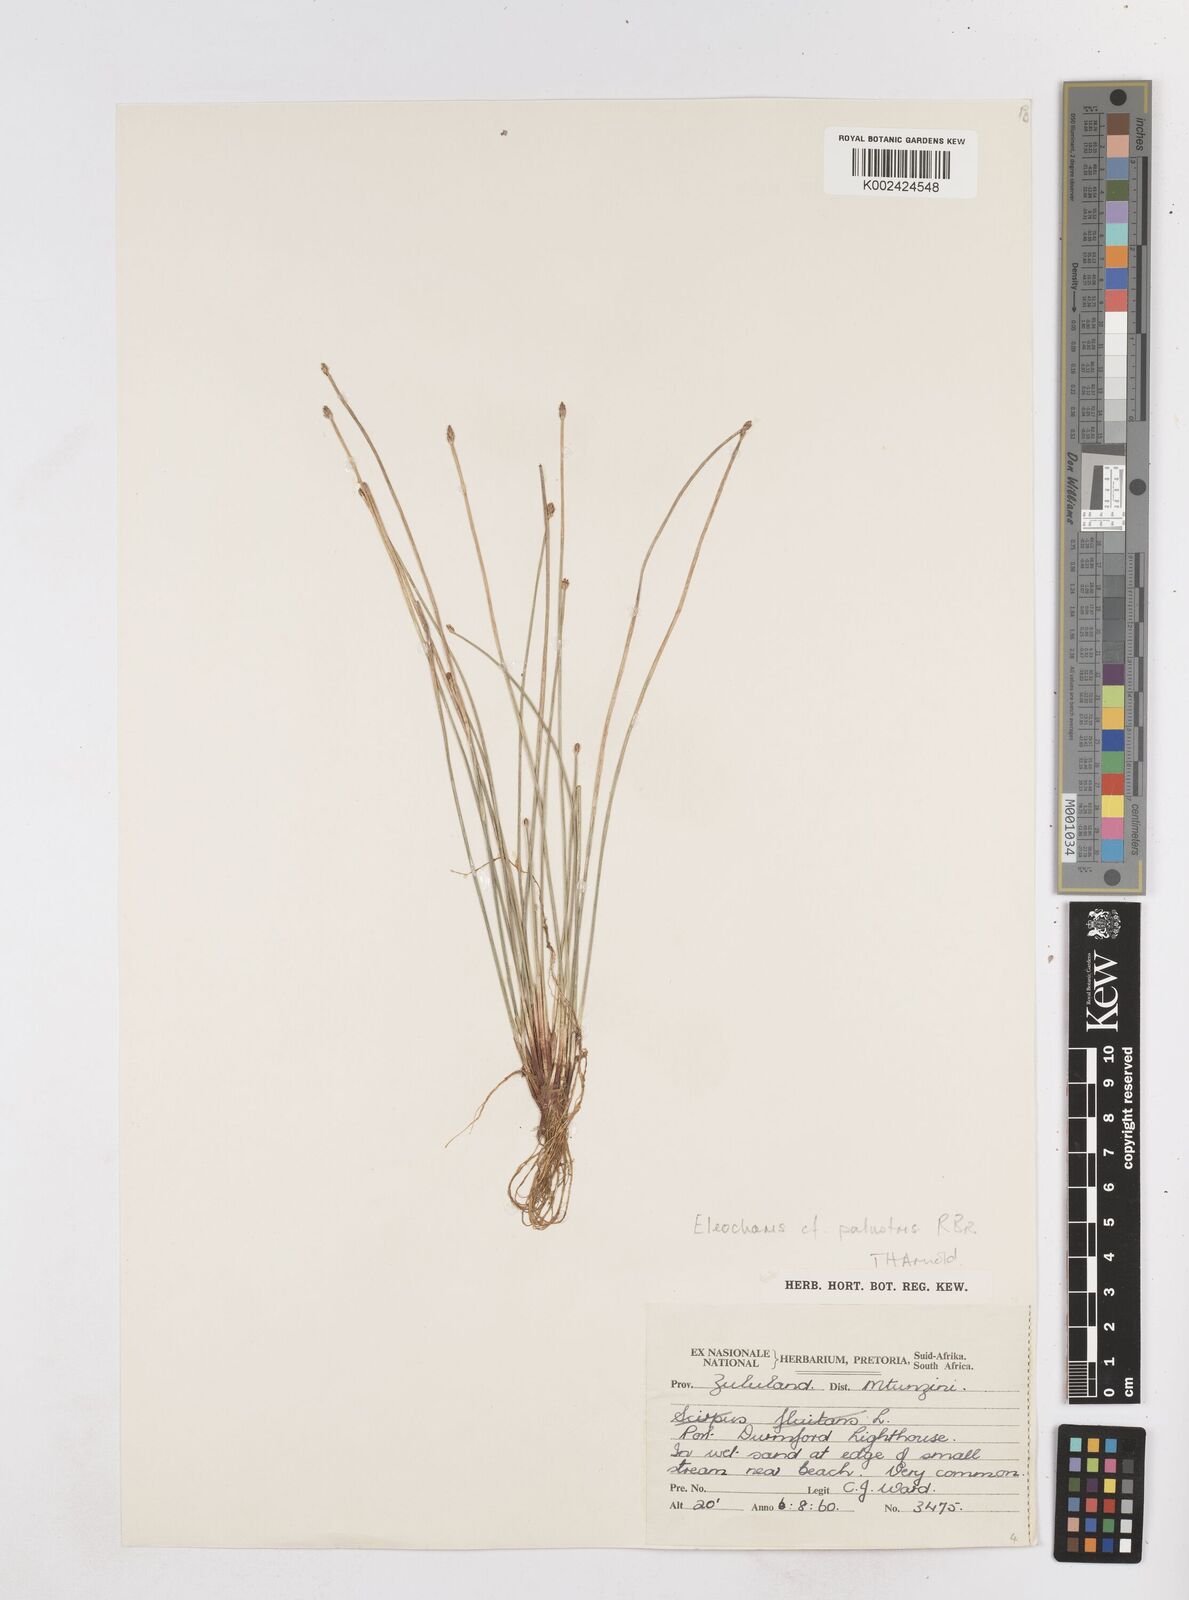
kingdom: Plantae
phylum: Tracheophyta
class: Liliopsida
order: Poales
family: Cyperaceae
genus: Eleocharis
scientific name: Eleocharis
